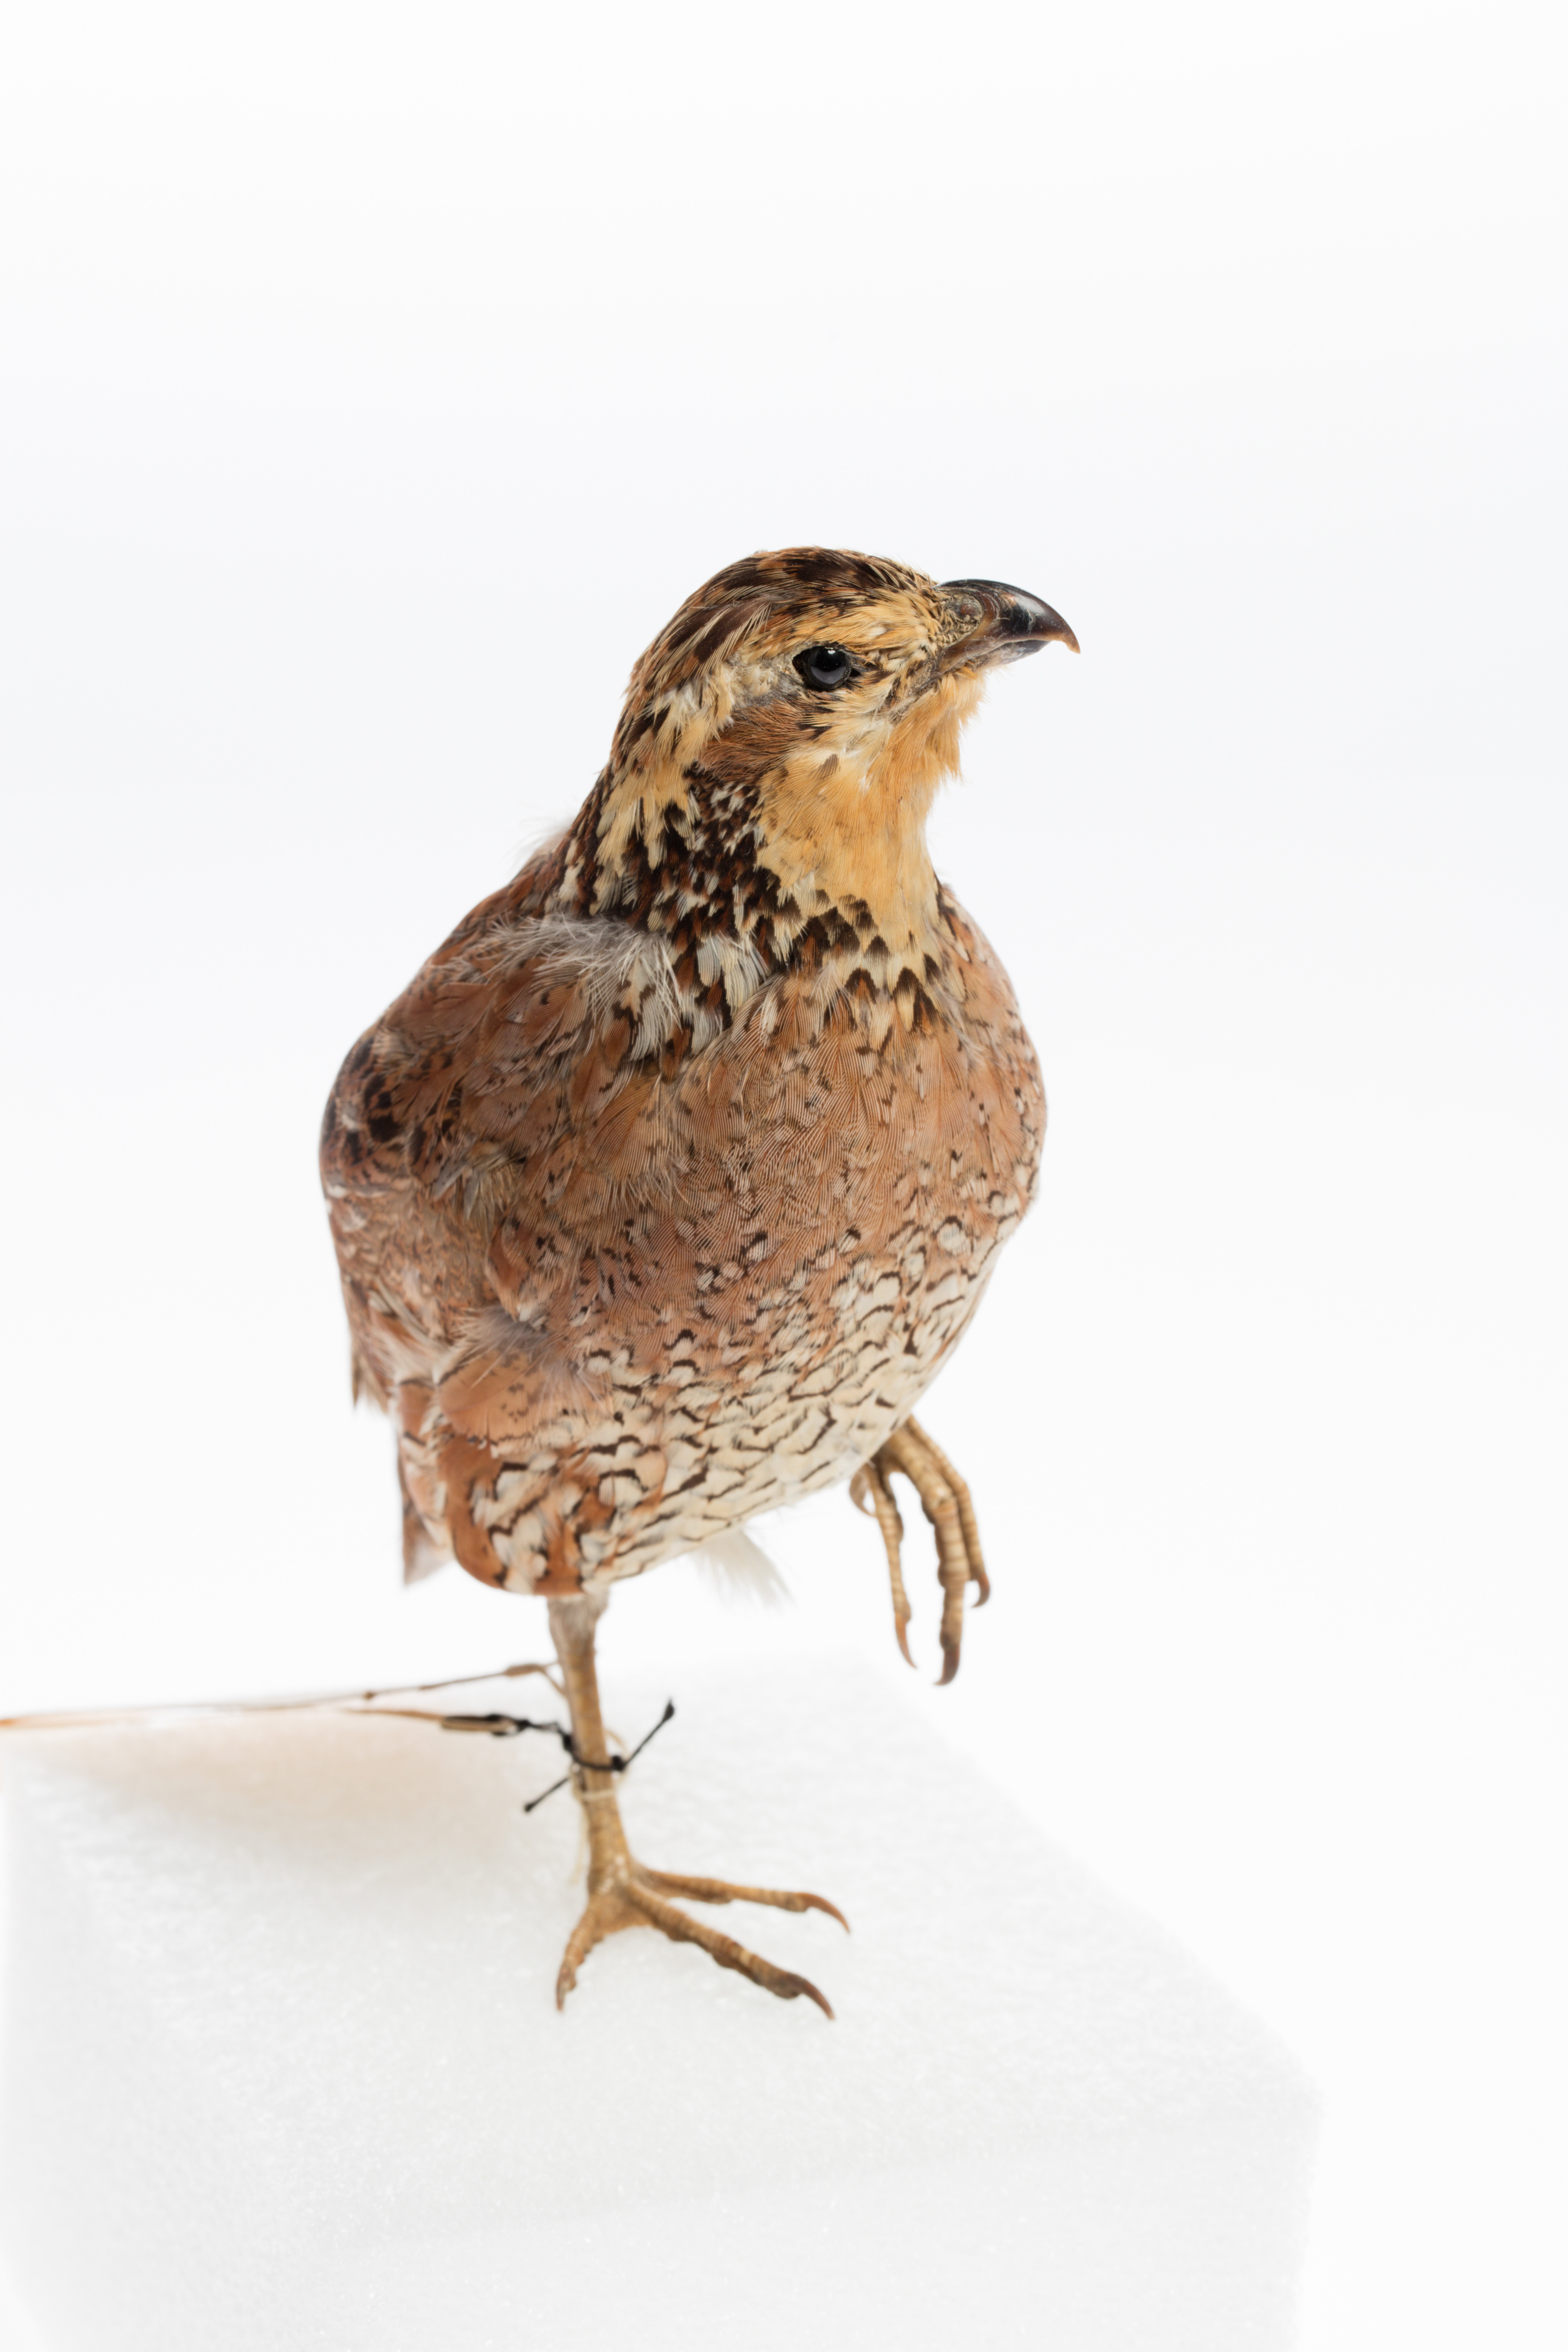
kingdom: Animalia
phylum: Chordata
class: Aves
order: Galliformes
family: Odontophoridae
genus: Colinus
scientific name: Colinus virginianus
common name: Northern bobwhite
